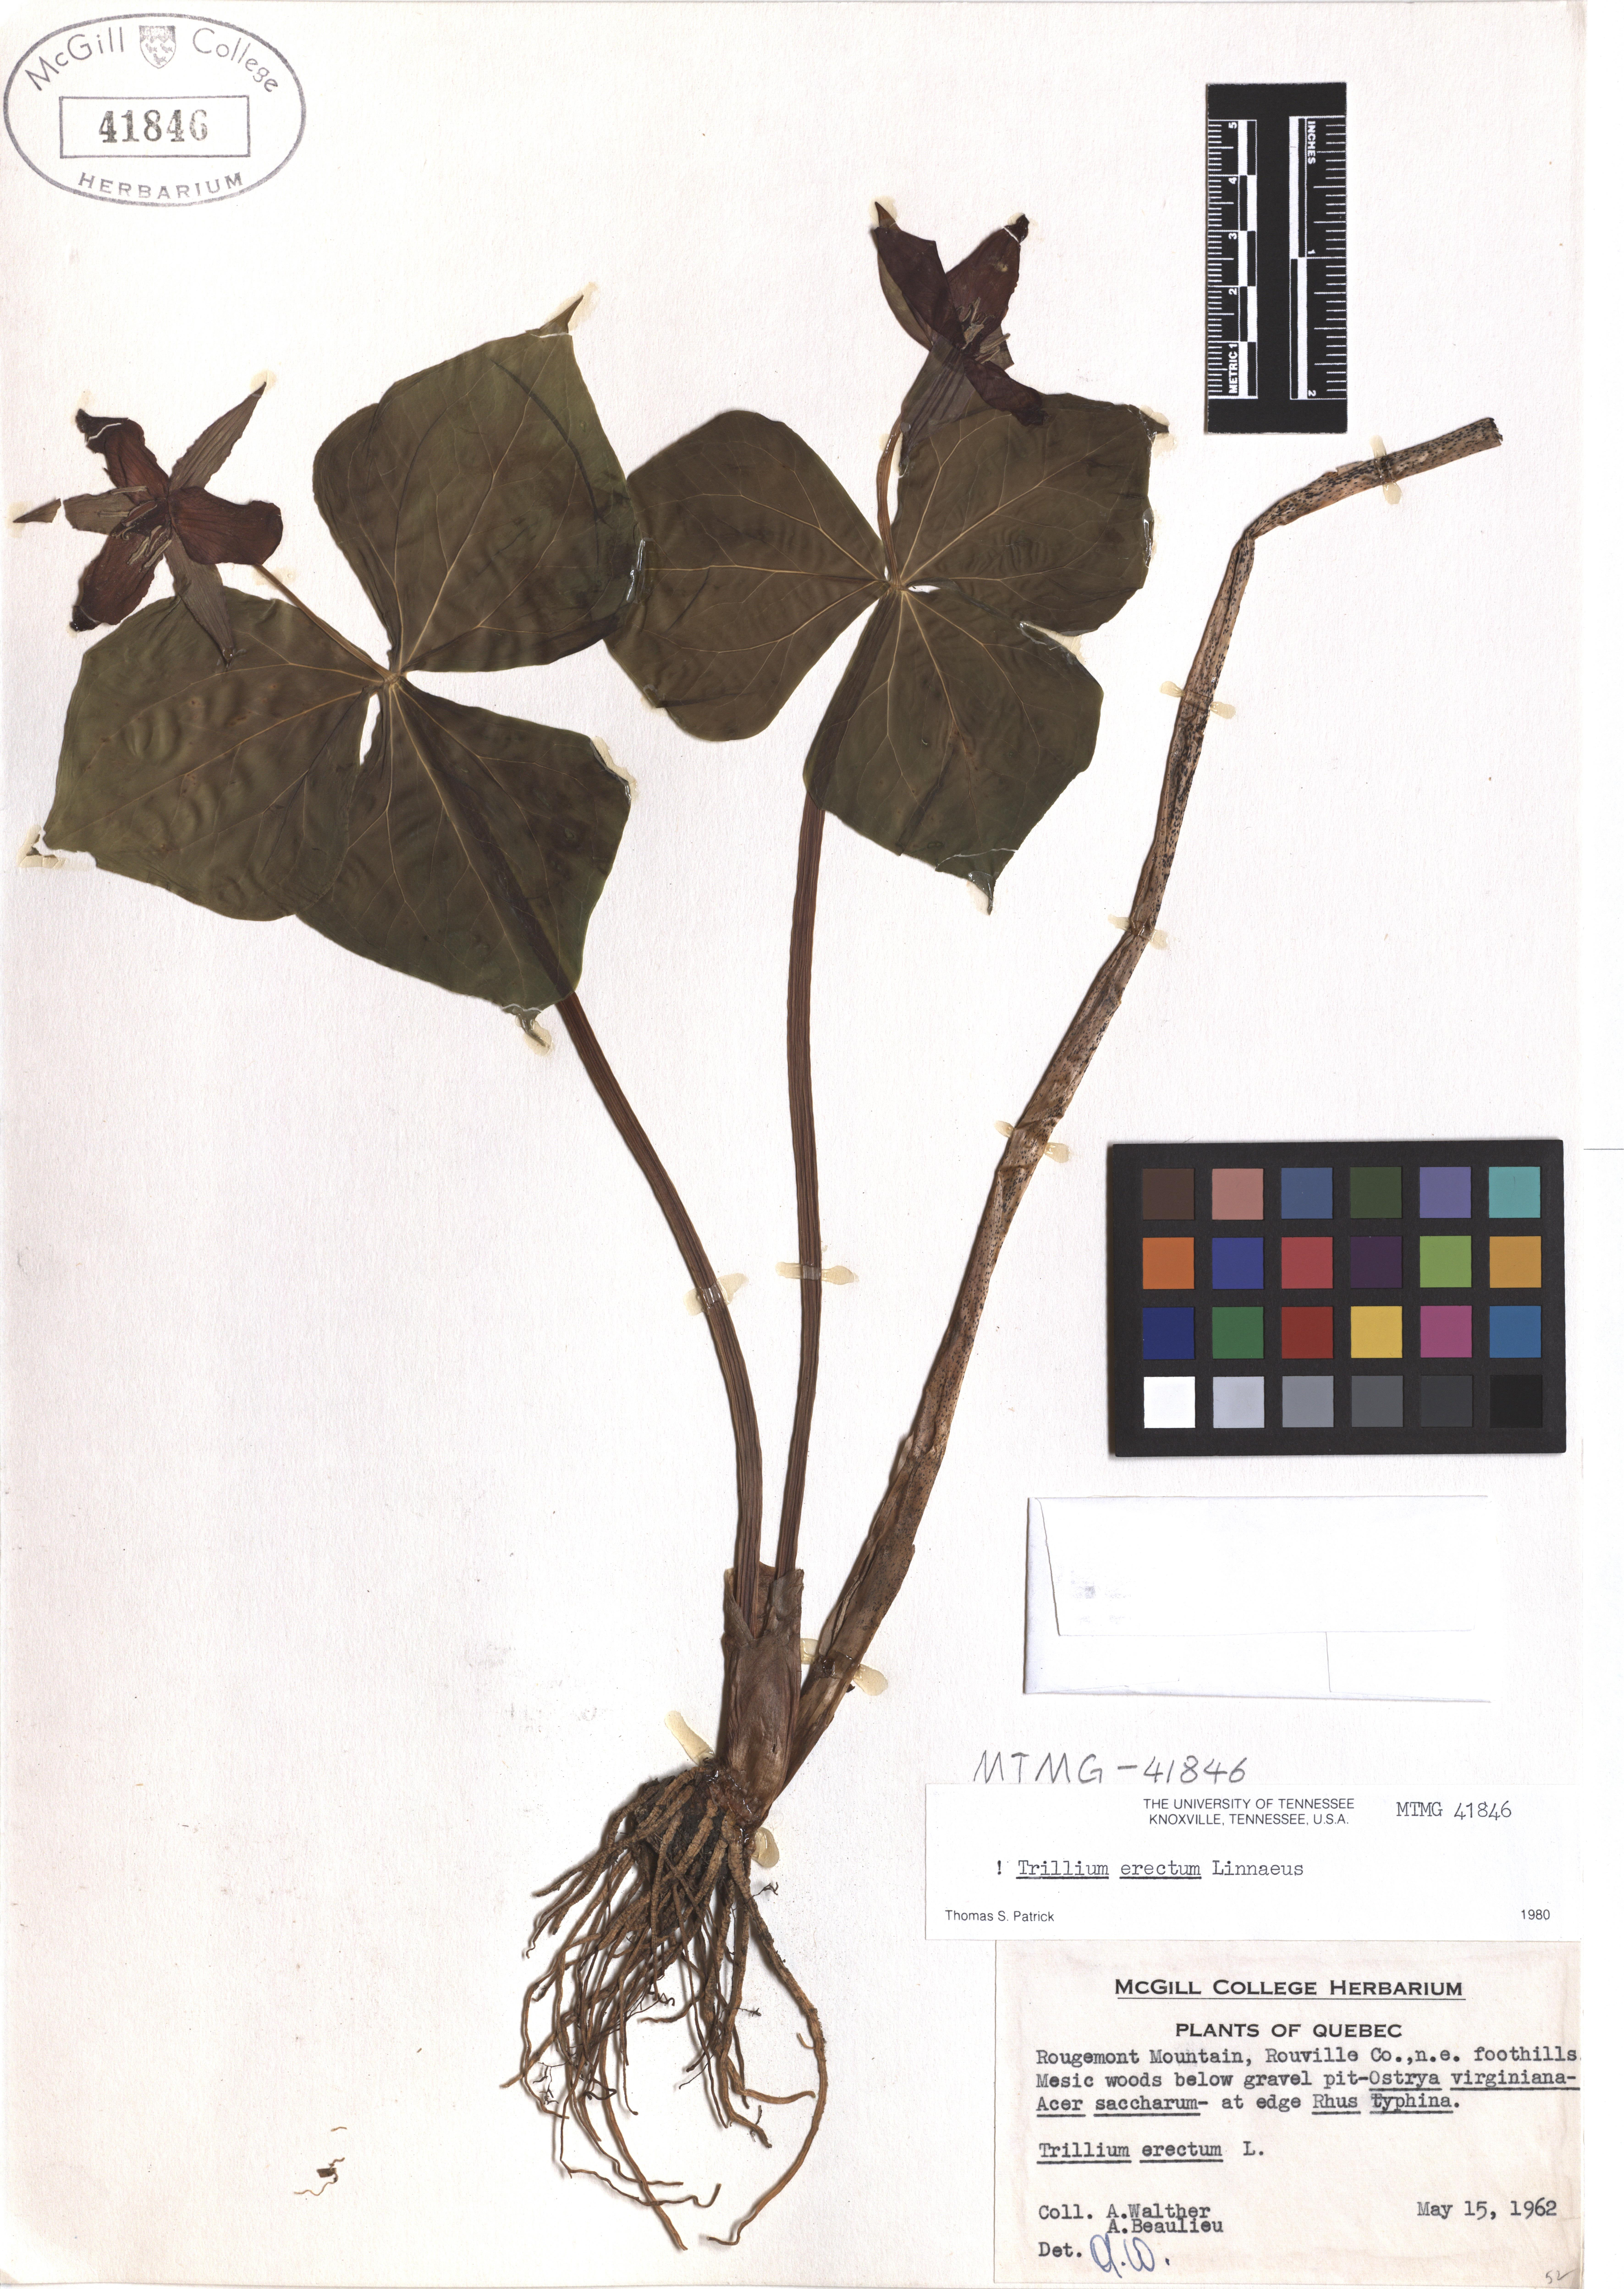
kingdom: Plantae
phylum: Tracheophyta
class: Liliopsida
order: Liliales
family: Melanthiaceae
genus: Trillium
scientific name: Trillium erectum
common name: Purple trillium
